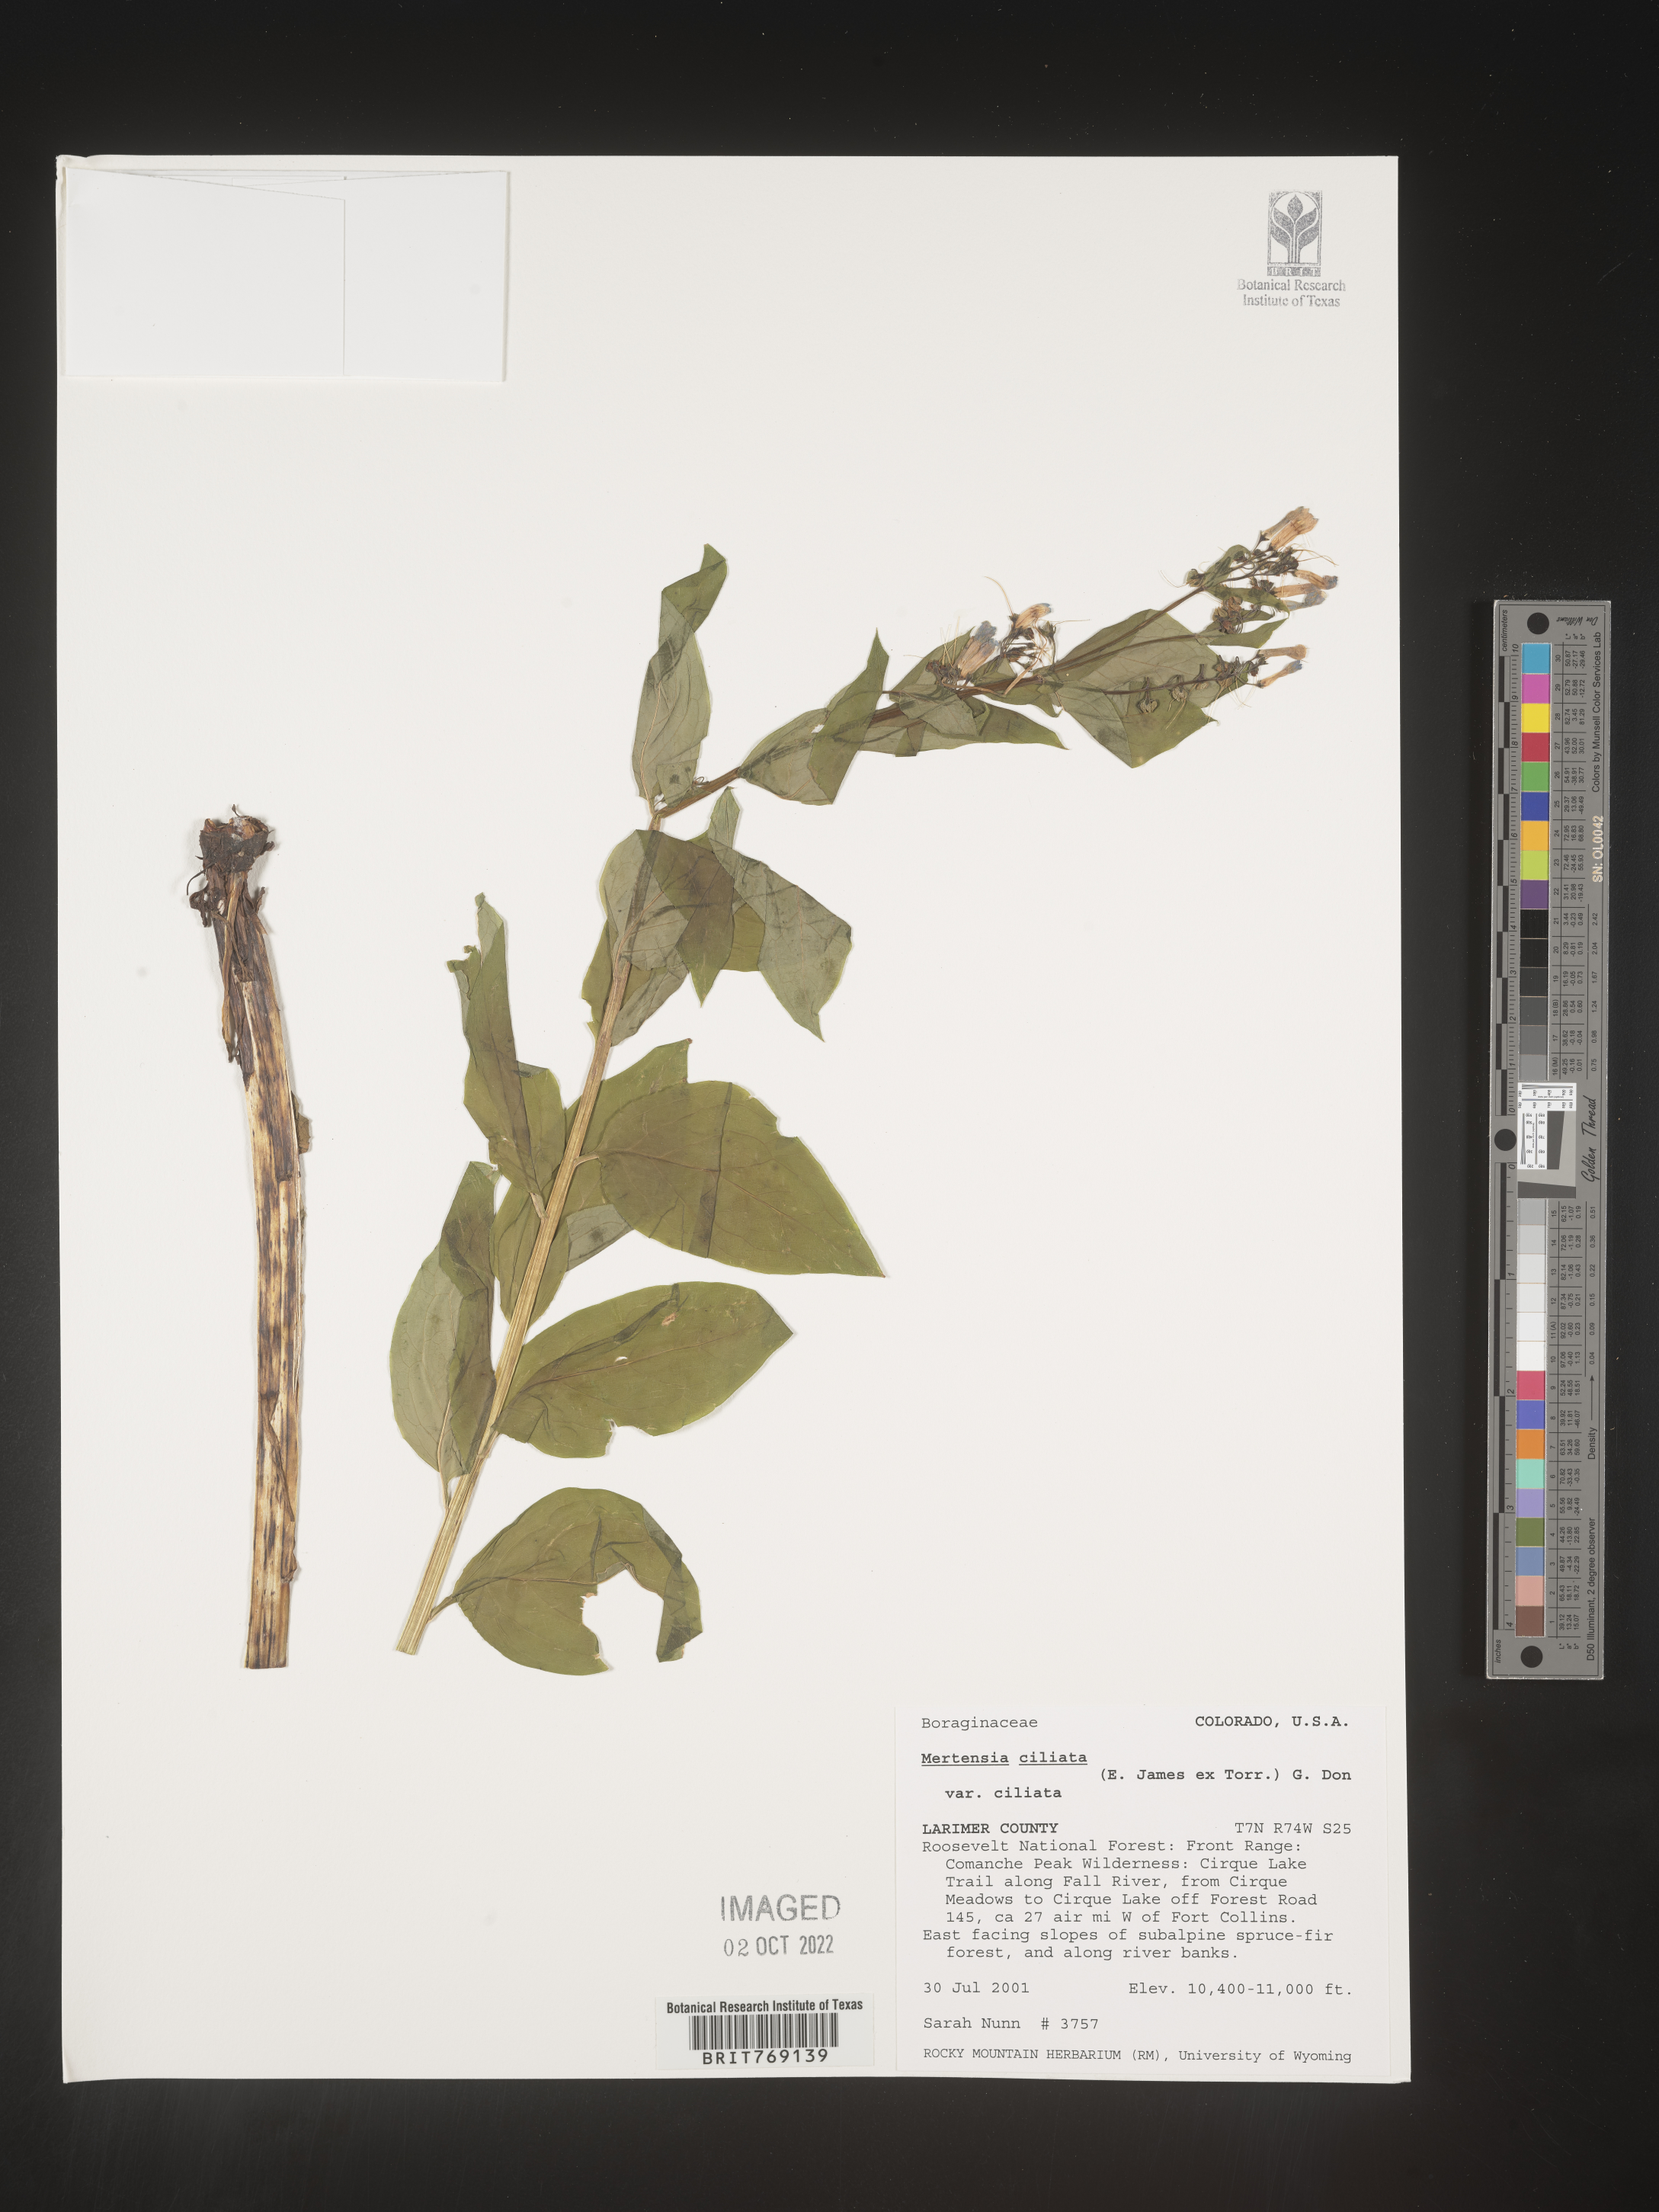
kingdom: Plantae
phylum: Tracheophyta
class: Magnoliopsida
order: Boraginales
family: Boraginaceae
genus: Mertensia
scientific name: Mertensia
